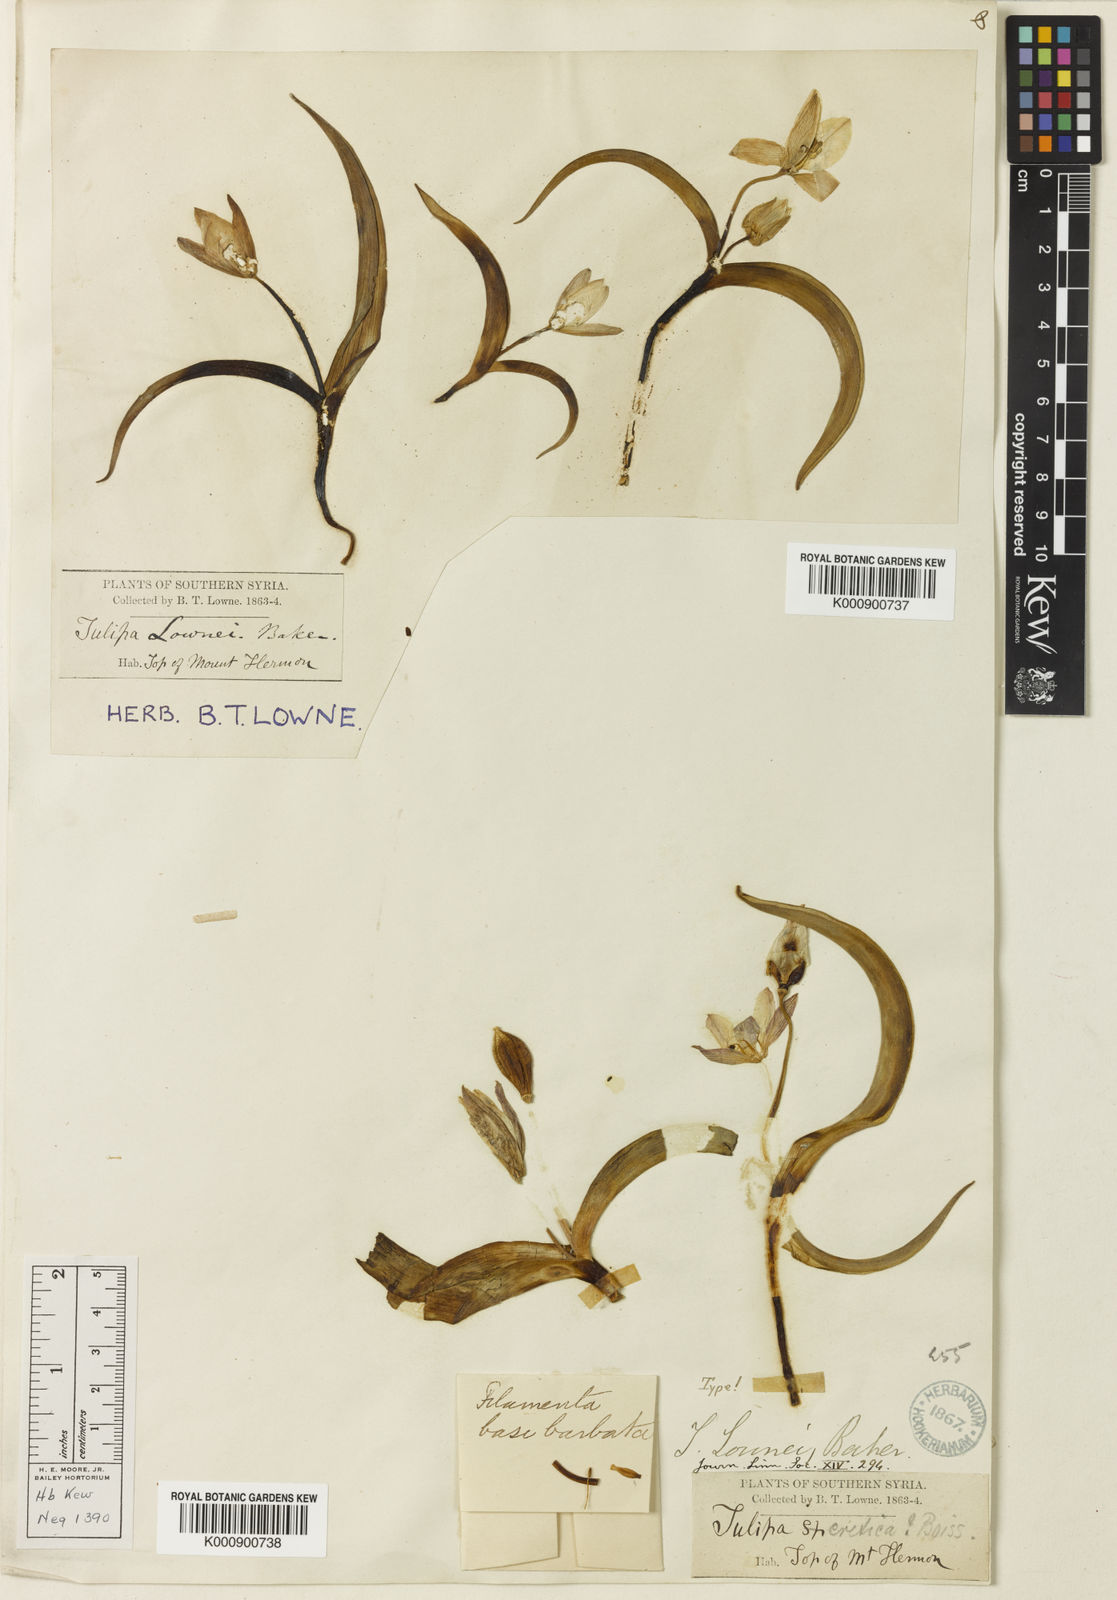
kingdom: Plantae
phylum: Tracheophyta
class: Liliopsida
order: Liliales
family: Liliaceae
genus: Tulipa
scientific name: Tulipa humilis
